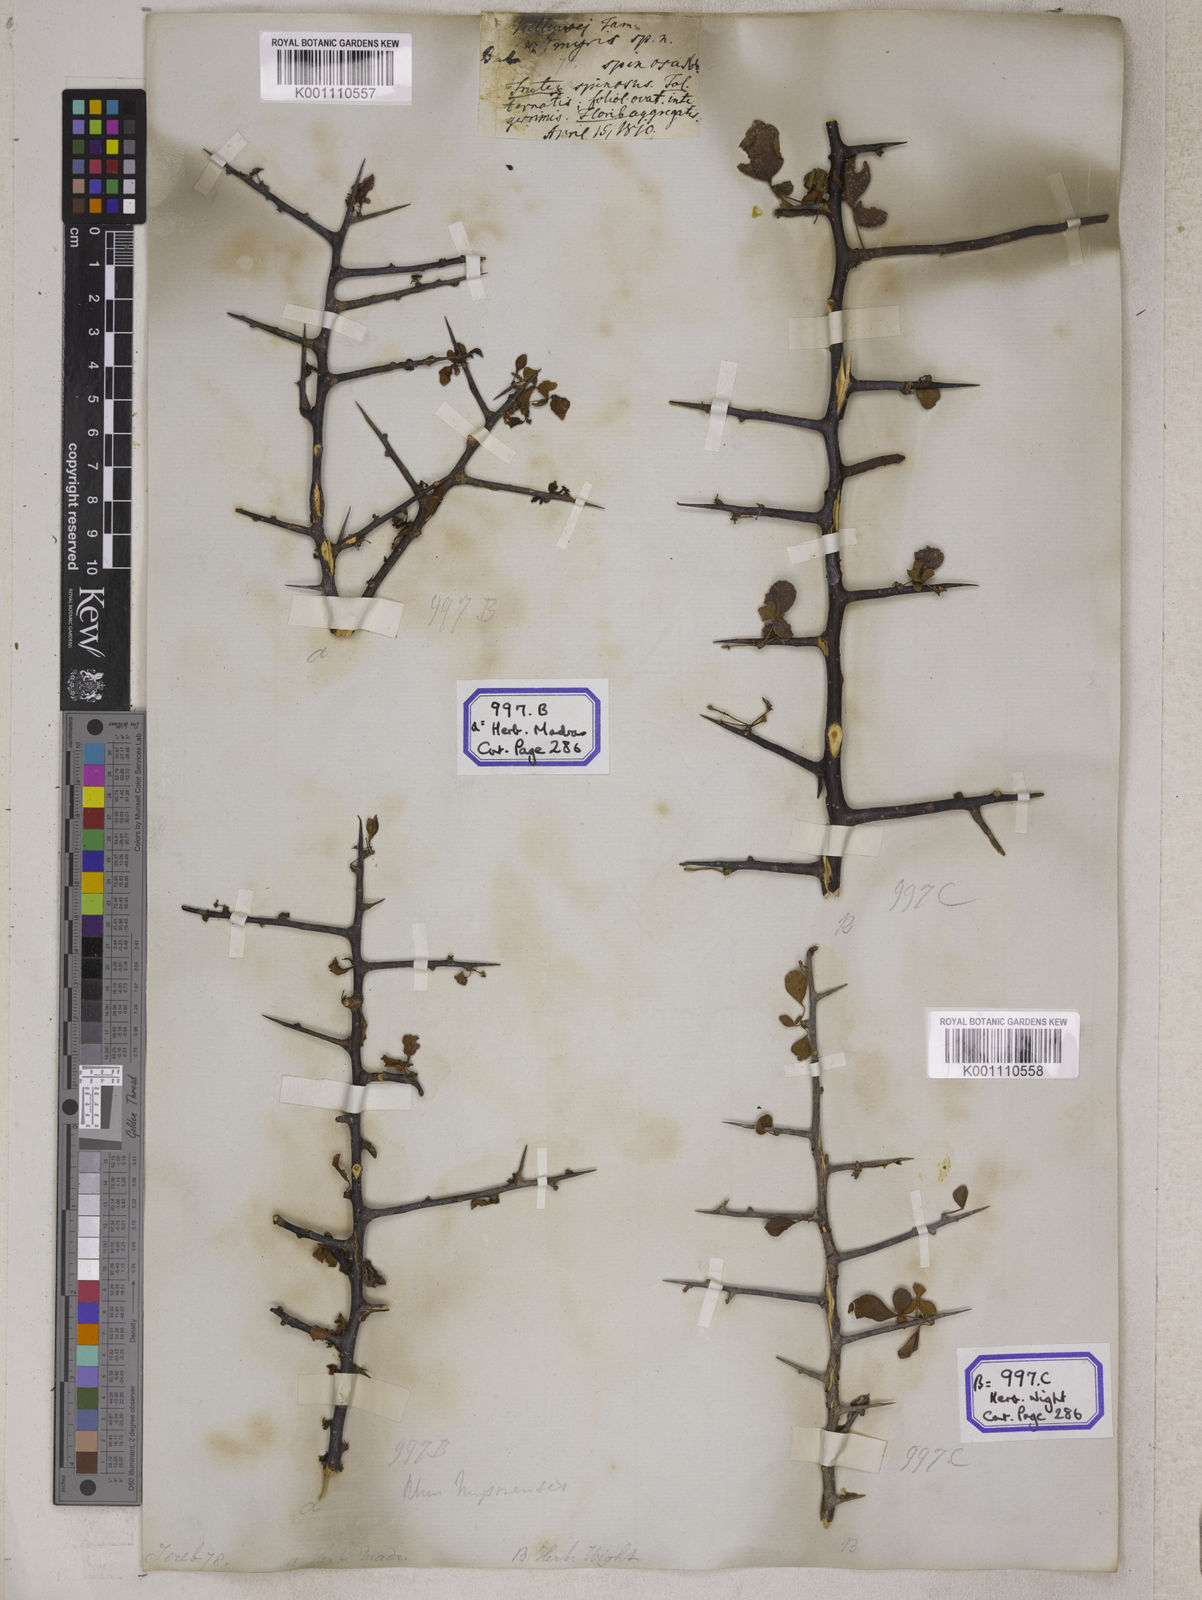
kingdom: Plantae
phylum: Tracheophyta
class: Magnoliopsida
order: Sapindales
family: Anacardiaceae
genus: Rhus
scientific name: Rhus
